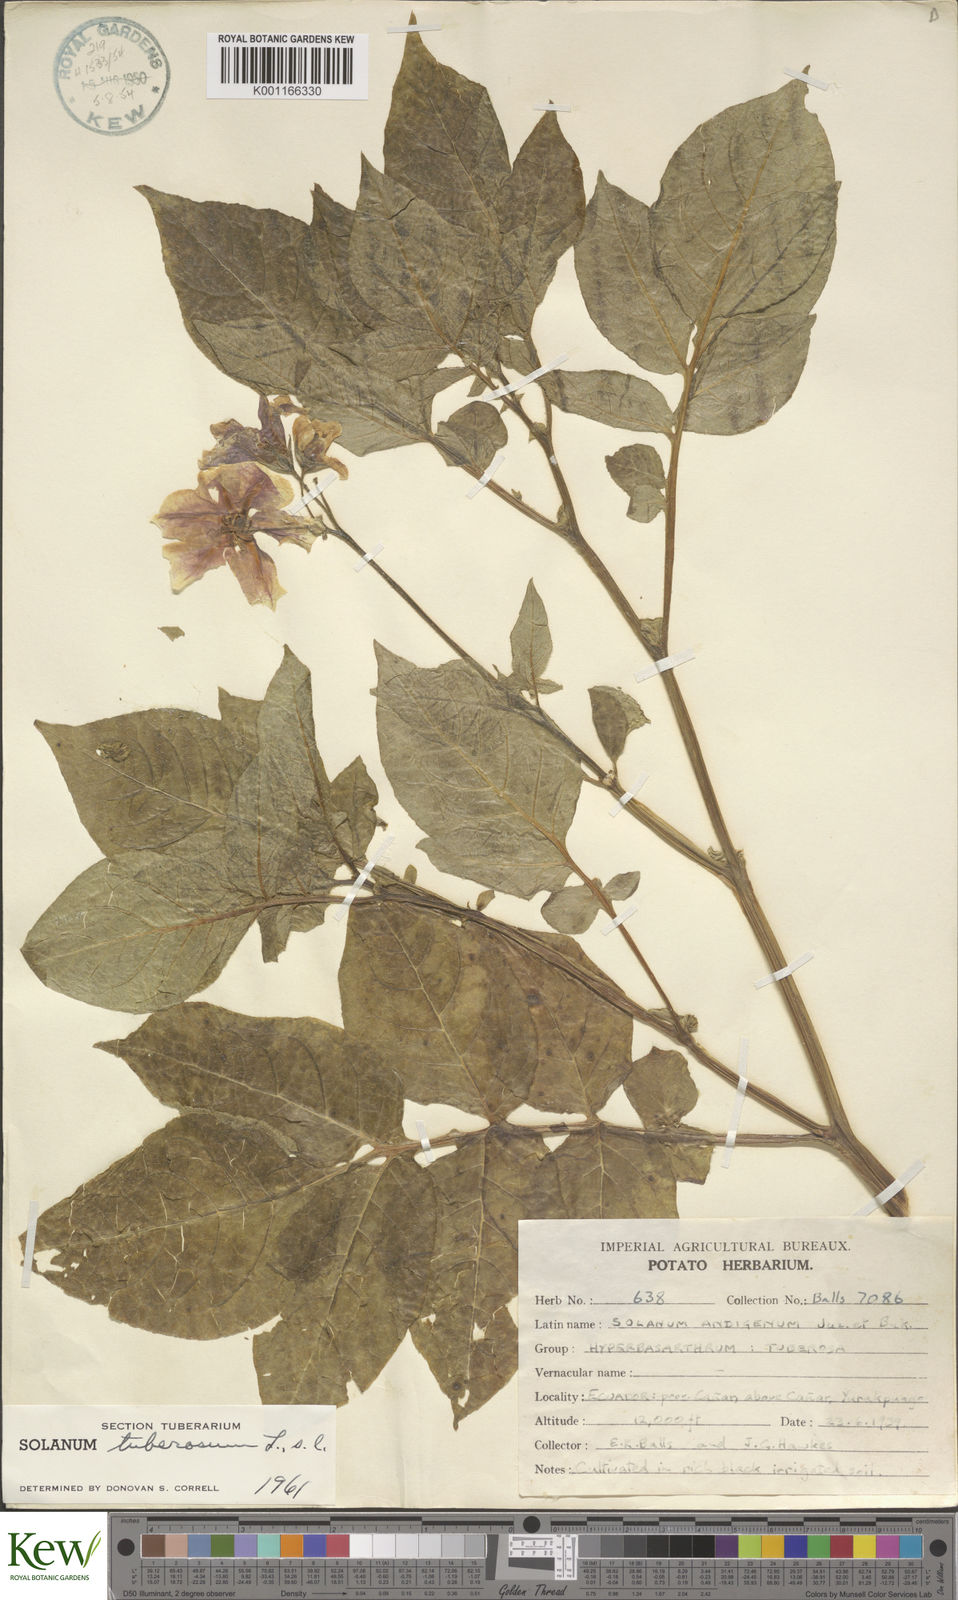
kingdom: Plantae
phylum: Tracheophyta
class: Magnoliopsida
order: Solanales
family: Solanaceae
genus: Solanum
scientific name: Solanum tuberosum
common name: Potato
